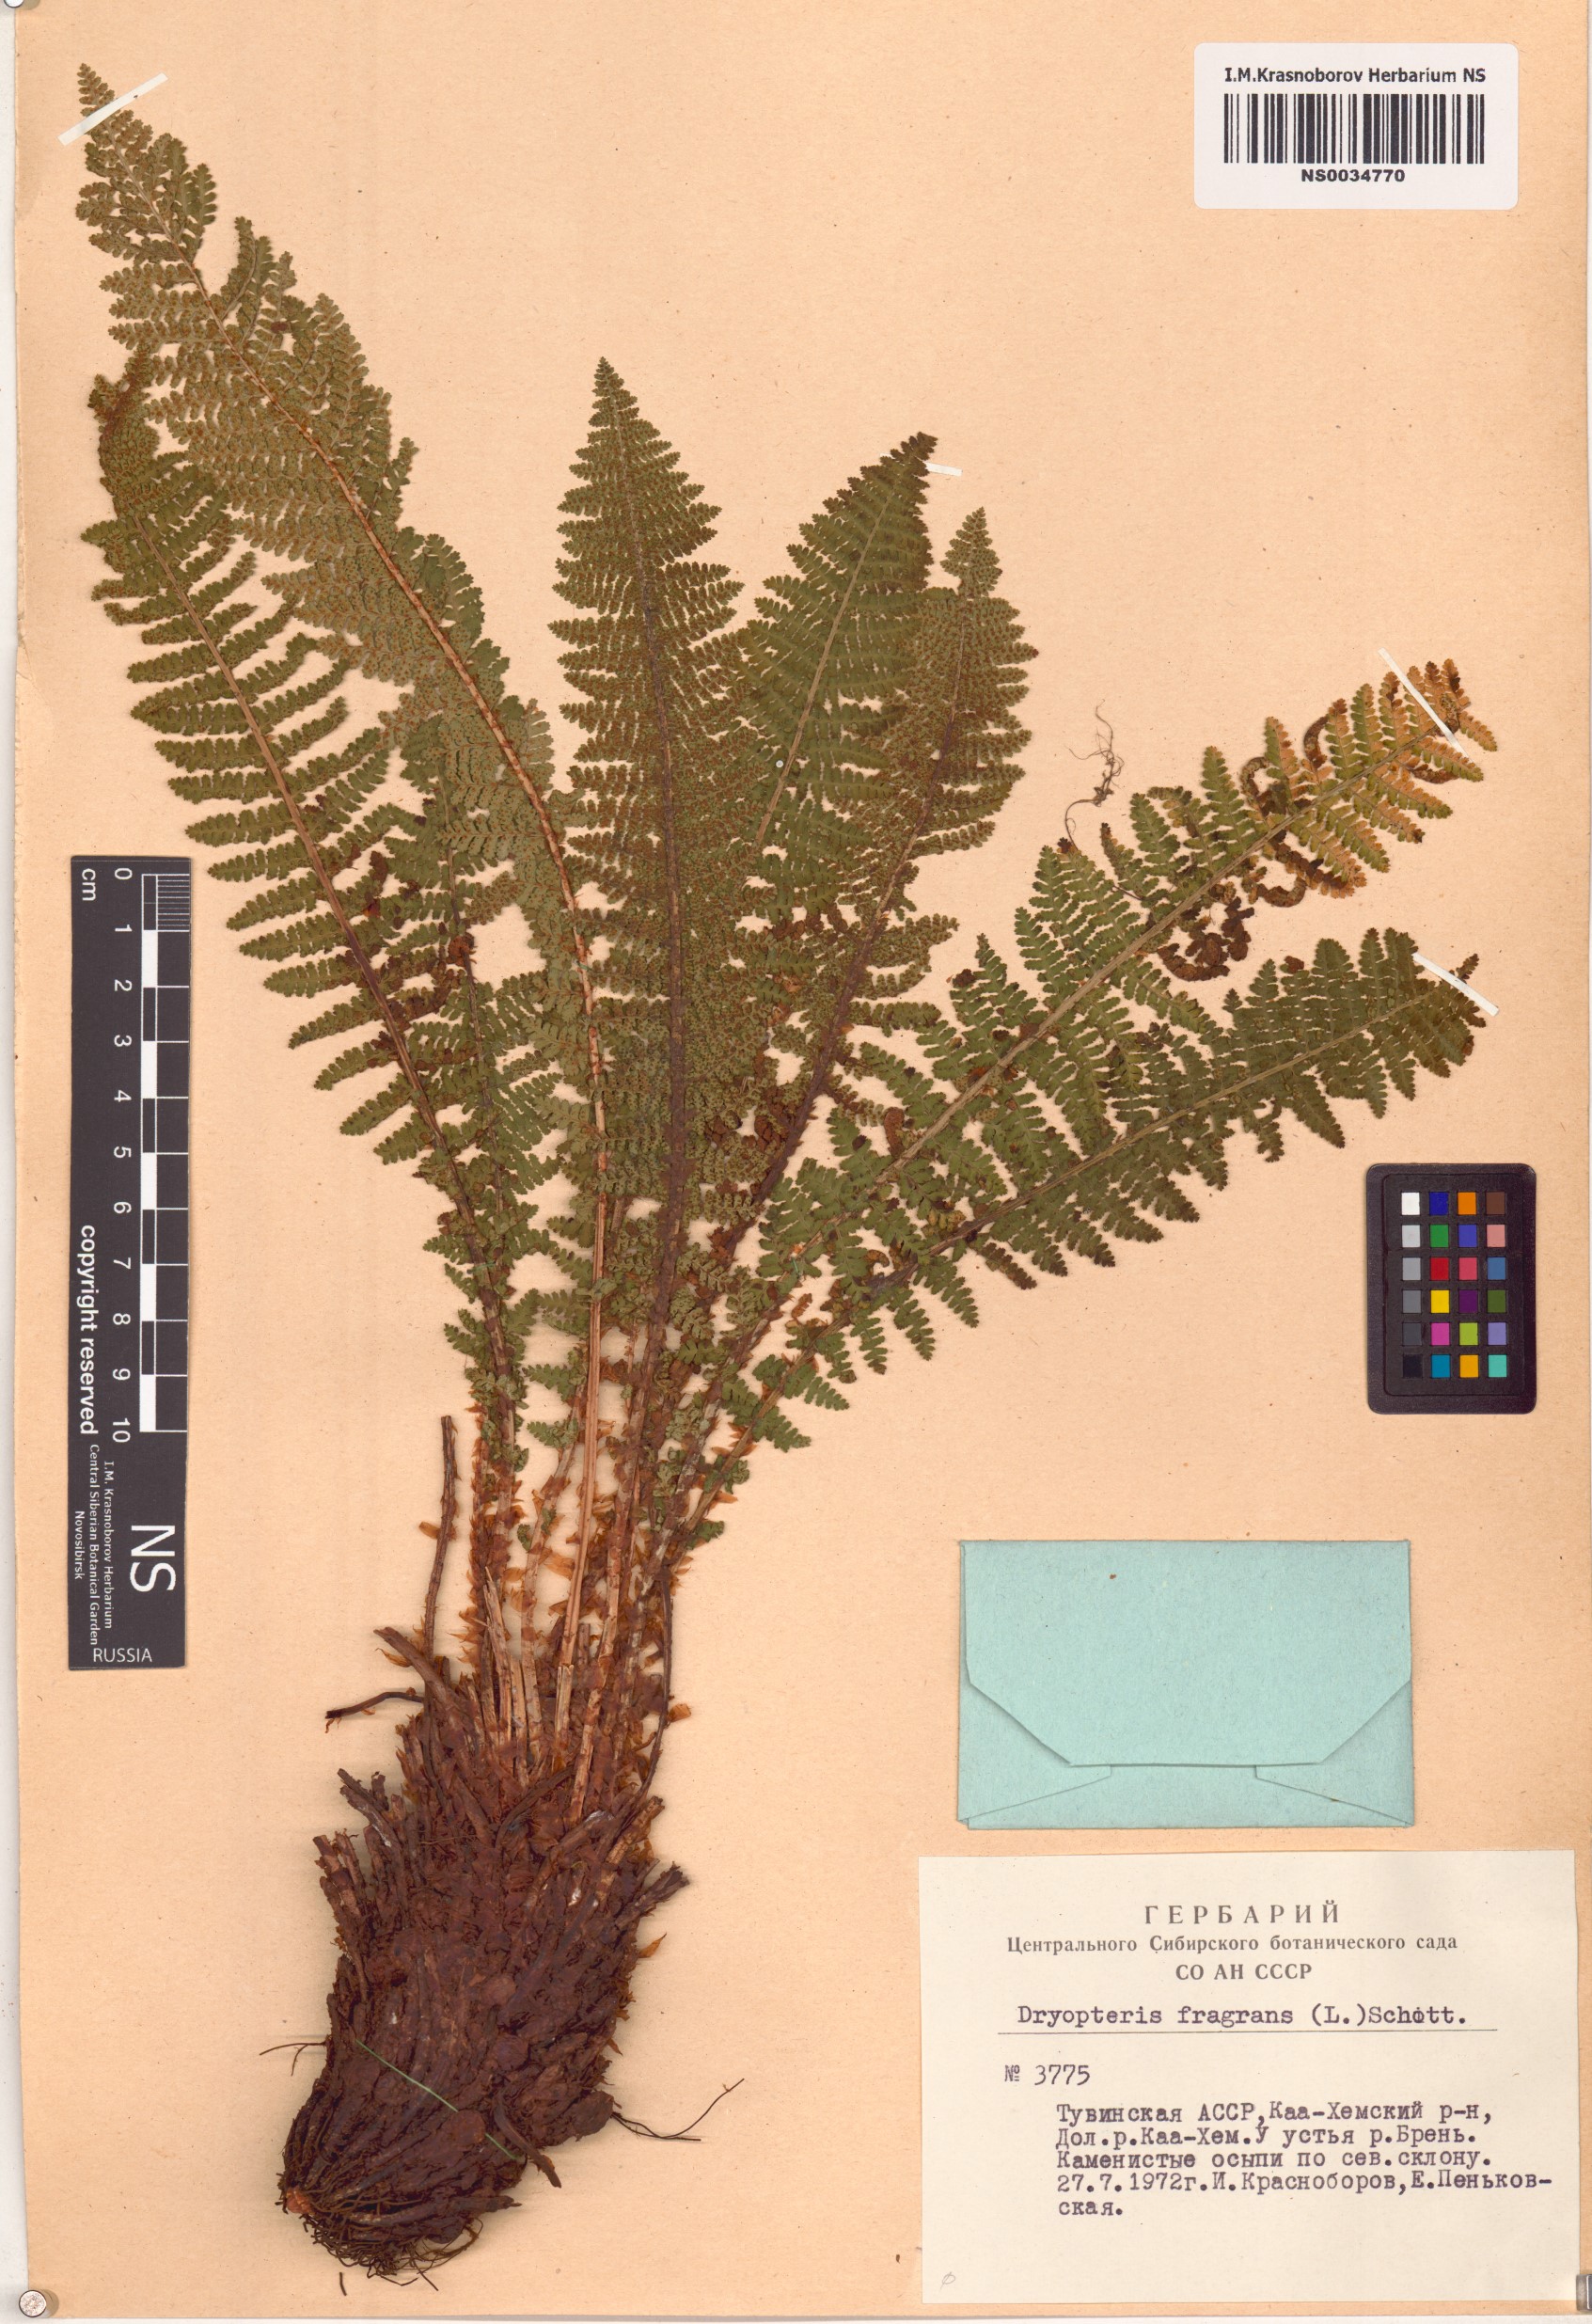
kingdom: Plantae
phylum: Tracheophyta
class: Polypodiopsida
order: Polypodiales
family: Dryopteridaceae
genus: Dryopteris
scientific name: Dryopteris fragrans
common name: Fragrant wood fern
